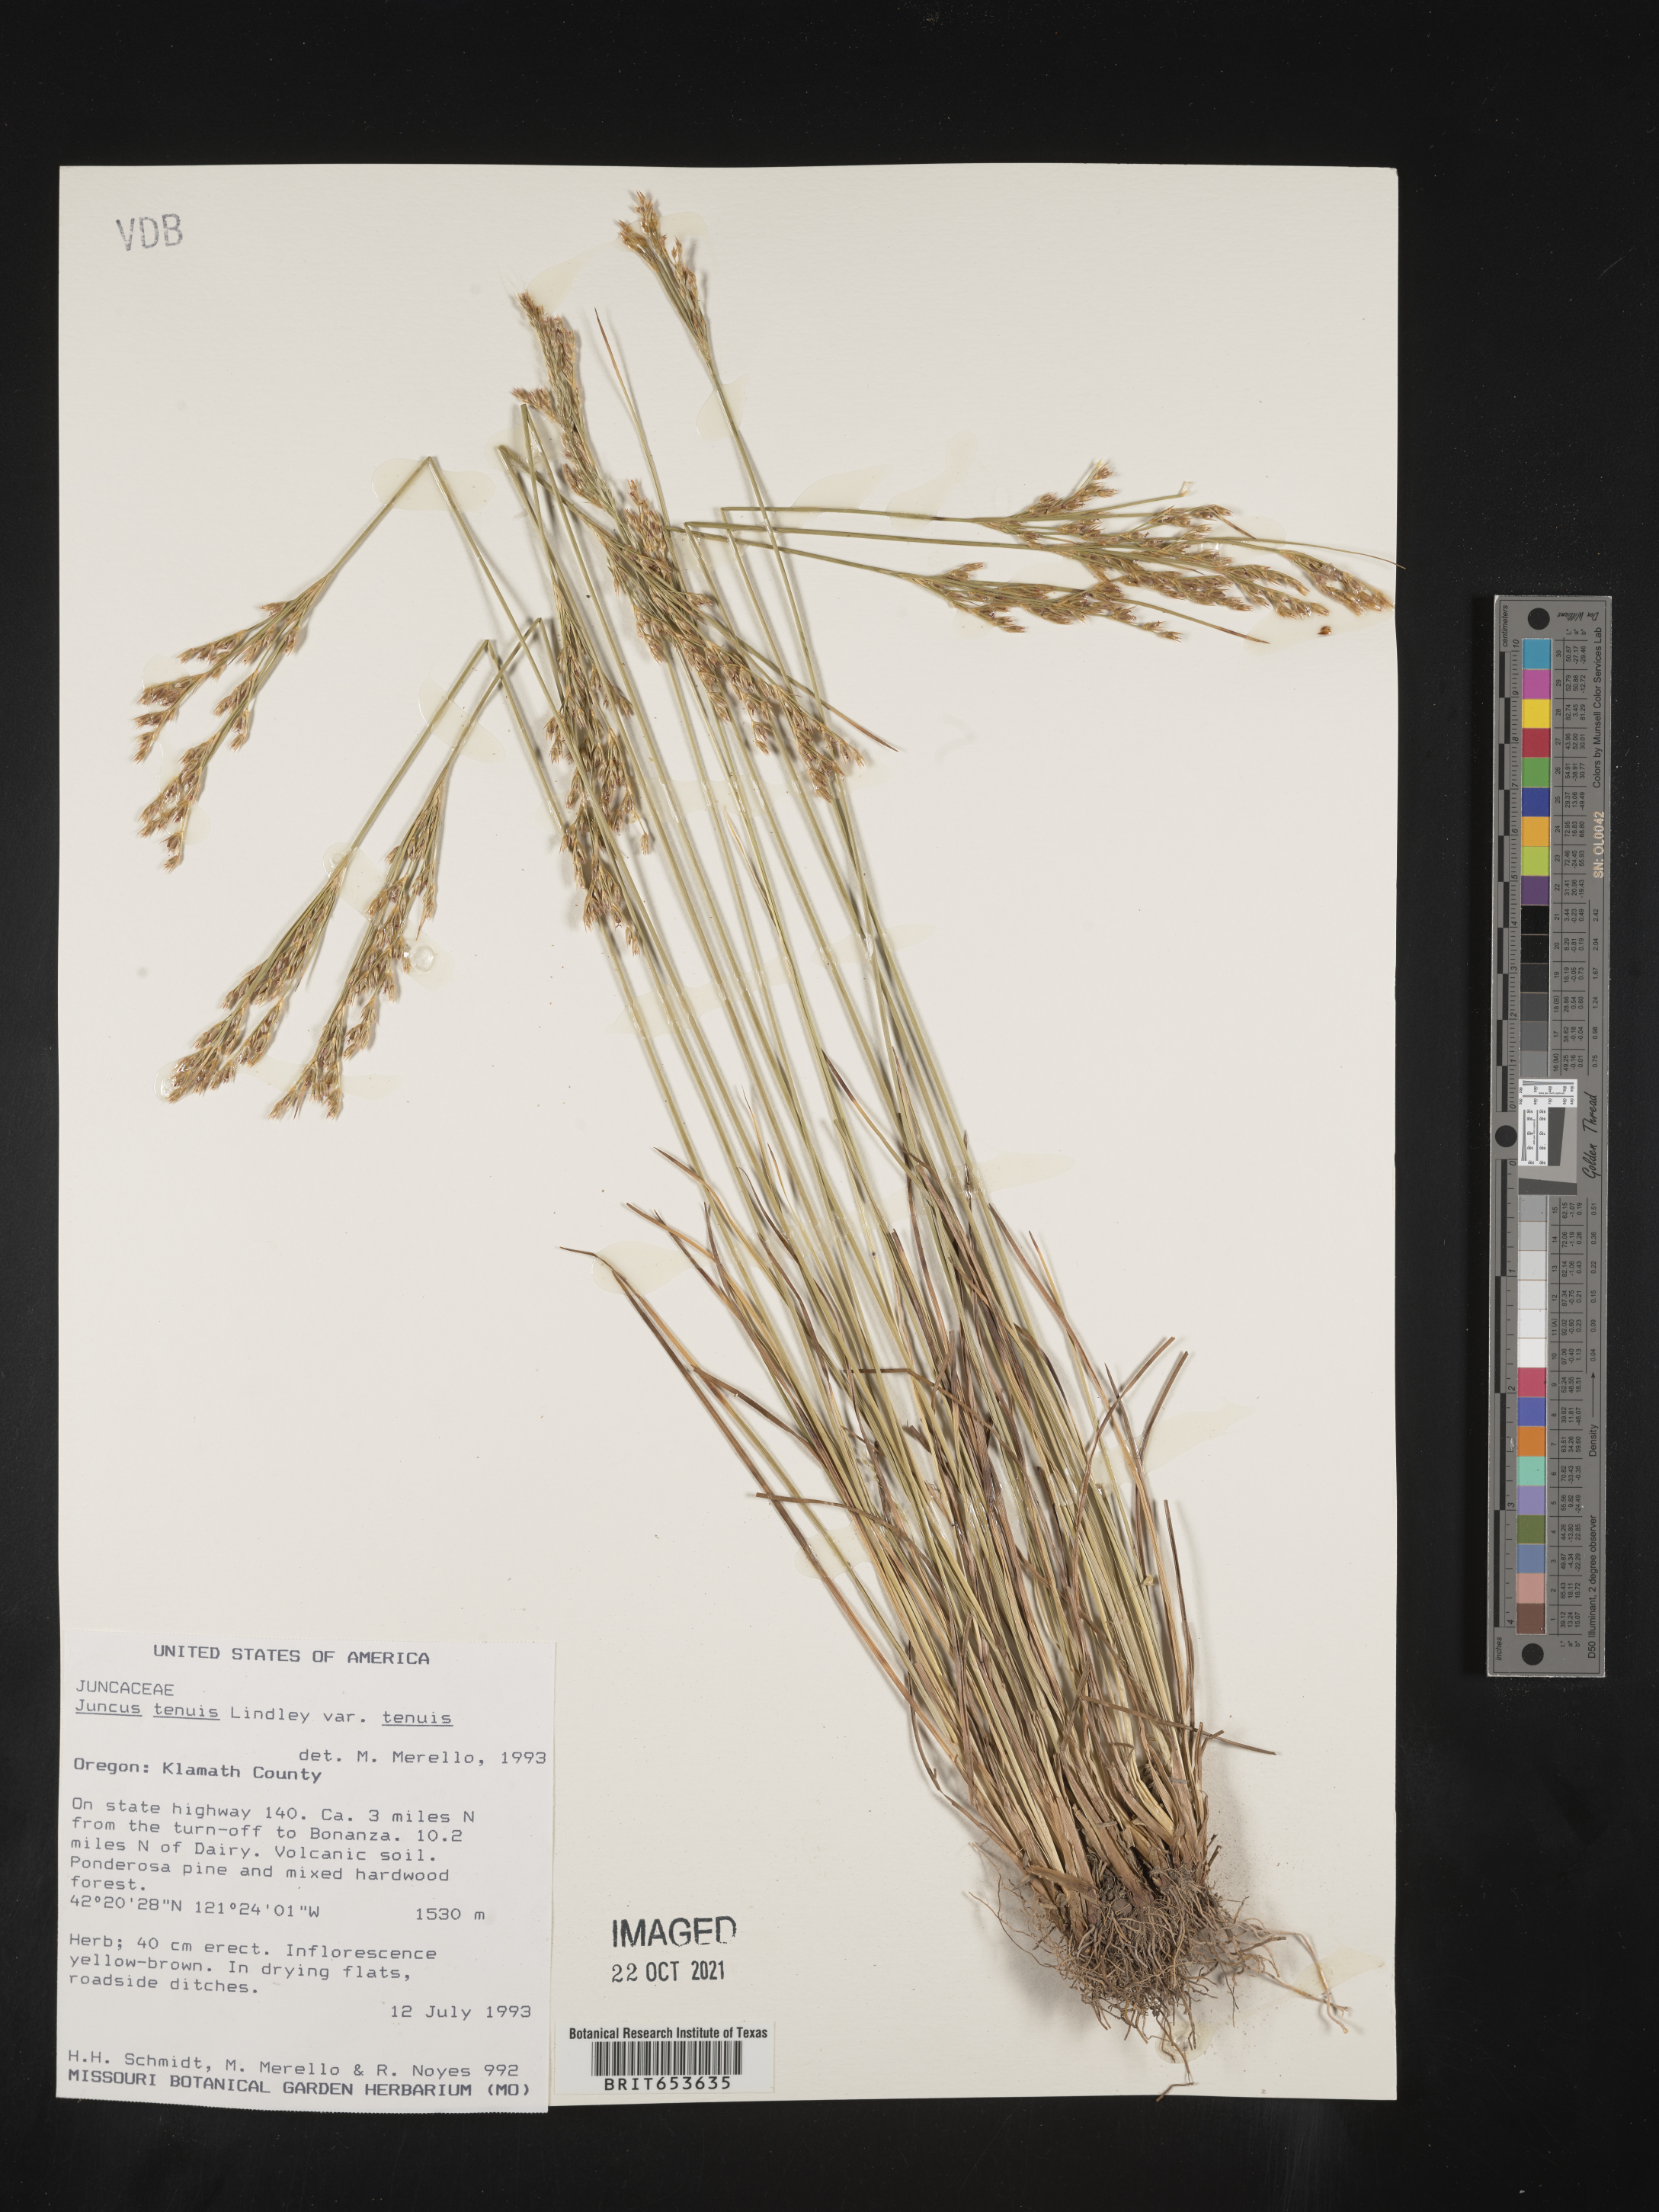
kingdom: Plantae
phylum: Tracheophyta
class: Liliopsida
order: Poales
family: Juncaceae
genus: Juncus
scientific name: Juncus tenuis
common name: Slender rush
